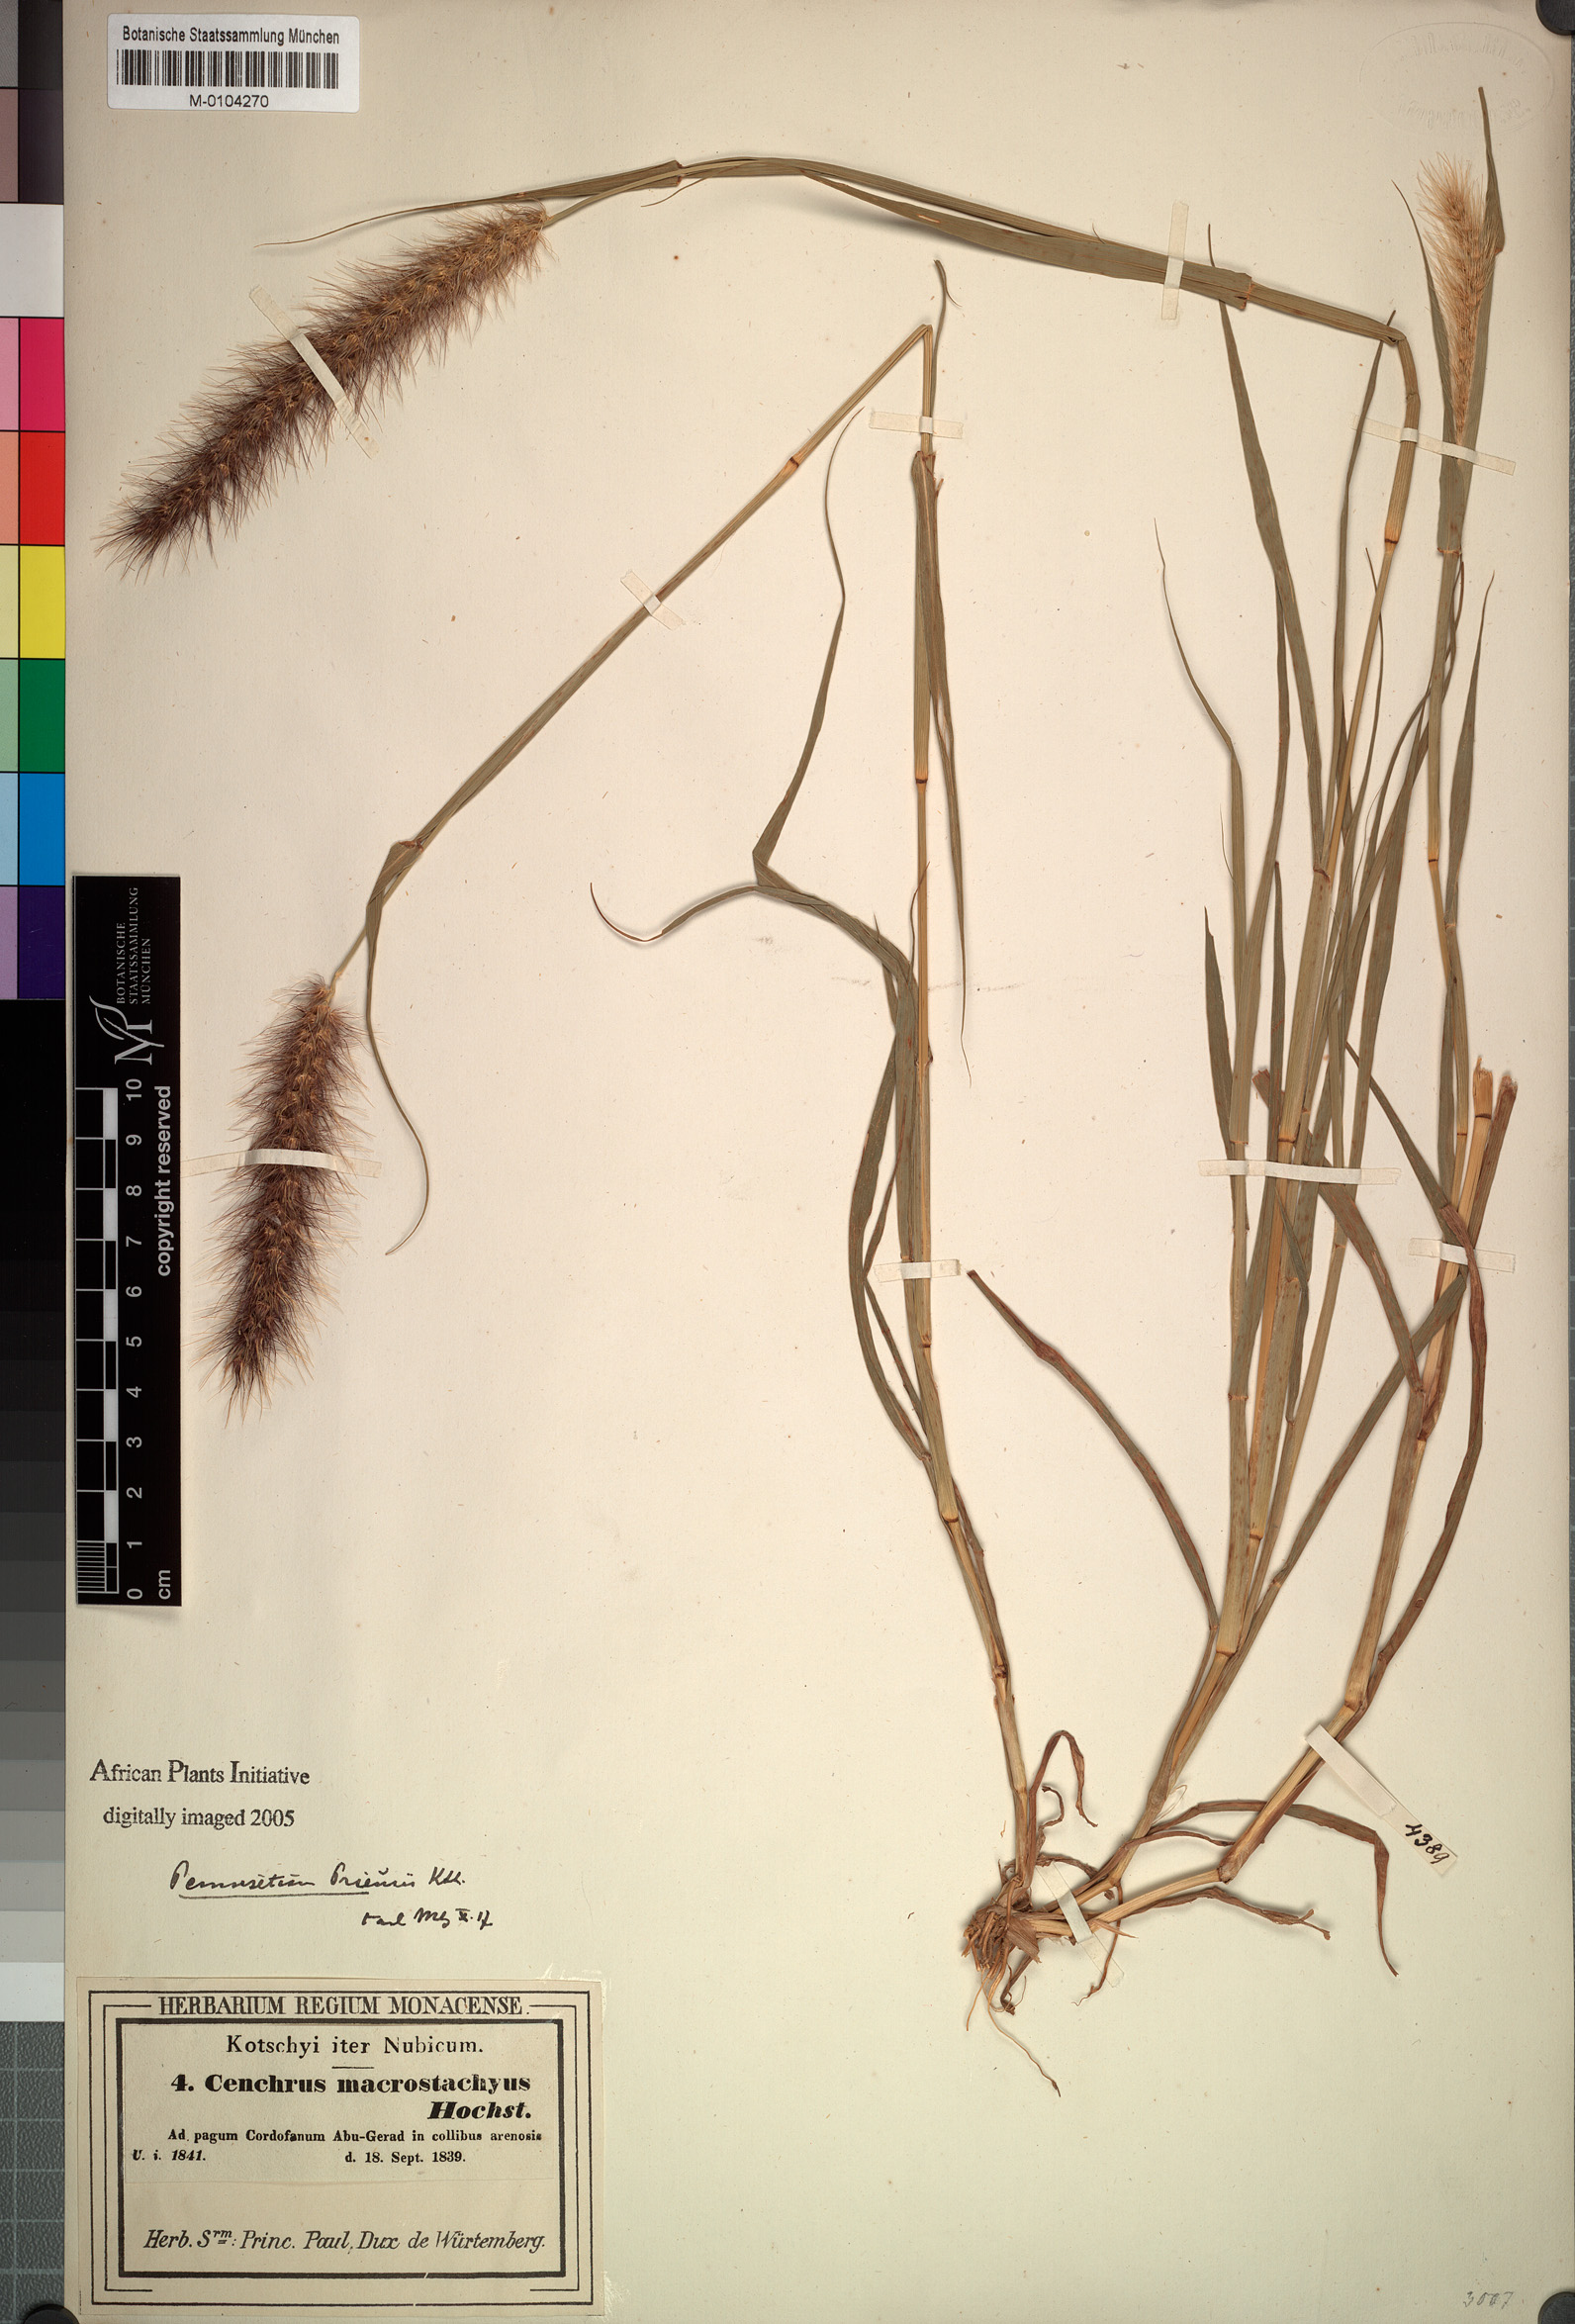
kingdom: Plantae
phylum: Tracheophyta
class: Liliopsida
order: Poales
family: Poaceae
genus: Cenchrus
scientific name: Cenchrus prieurii
